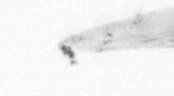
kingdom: Animalia
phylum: Arthropoda
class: Copepoda
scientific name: Copepoda
